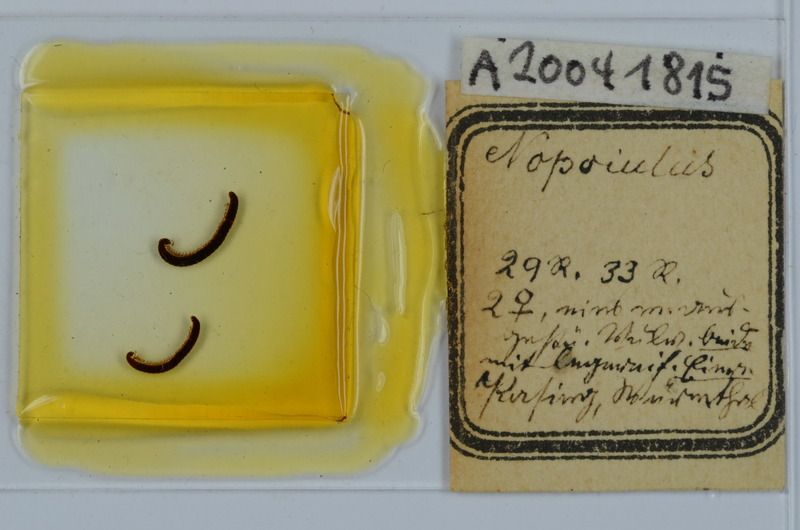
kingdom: Animalia
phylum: Arthropoda
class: Diplopoda
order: Julida
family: Blaniulidae
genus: Nopoiulus
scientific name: Nopoiulus
